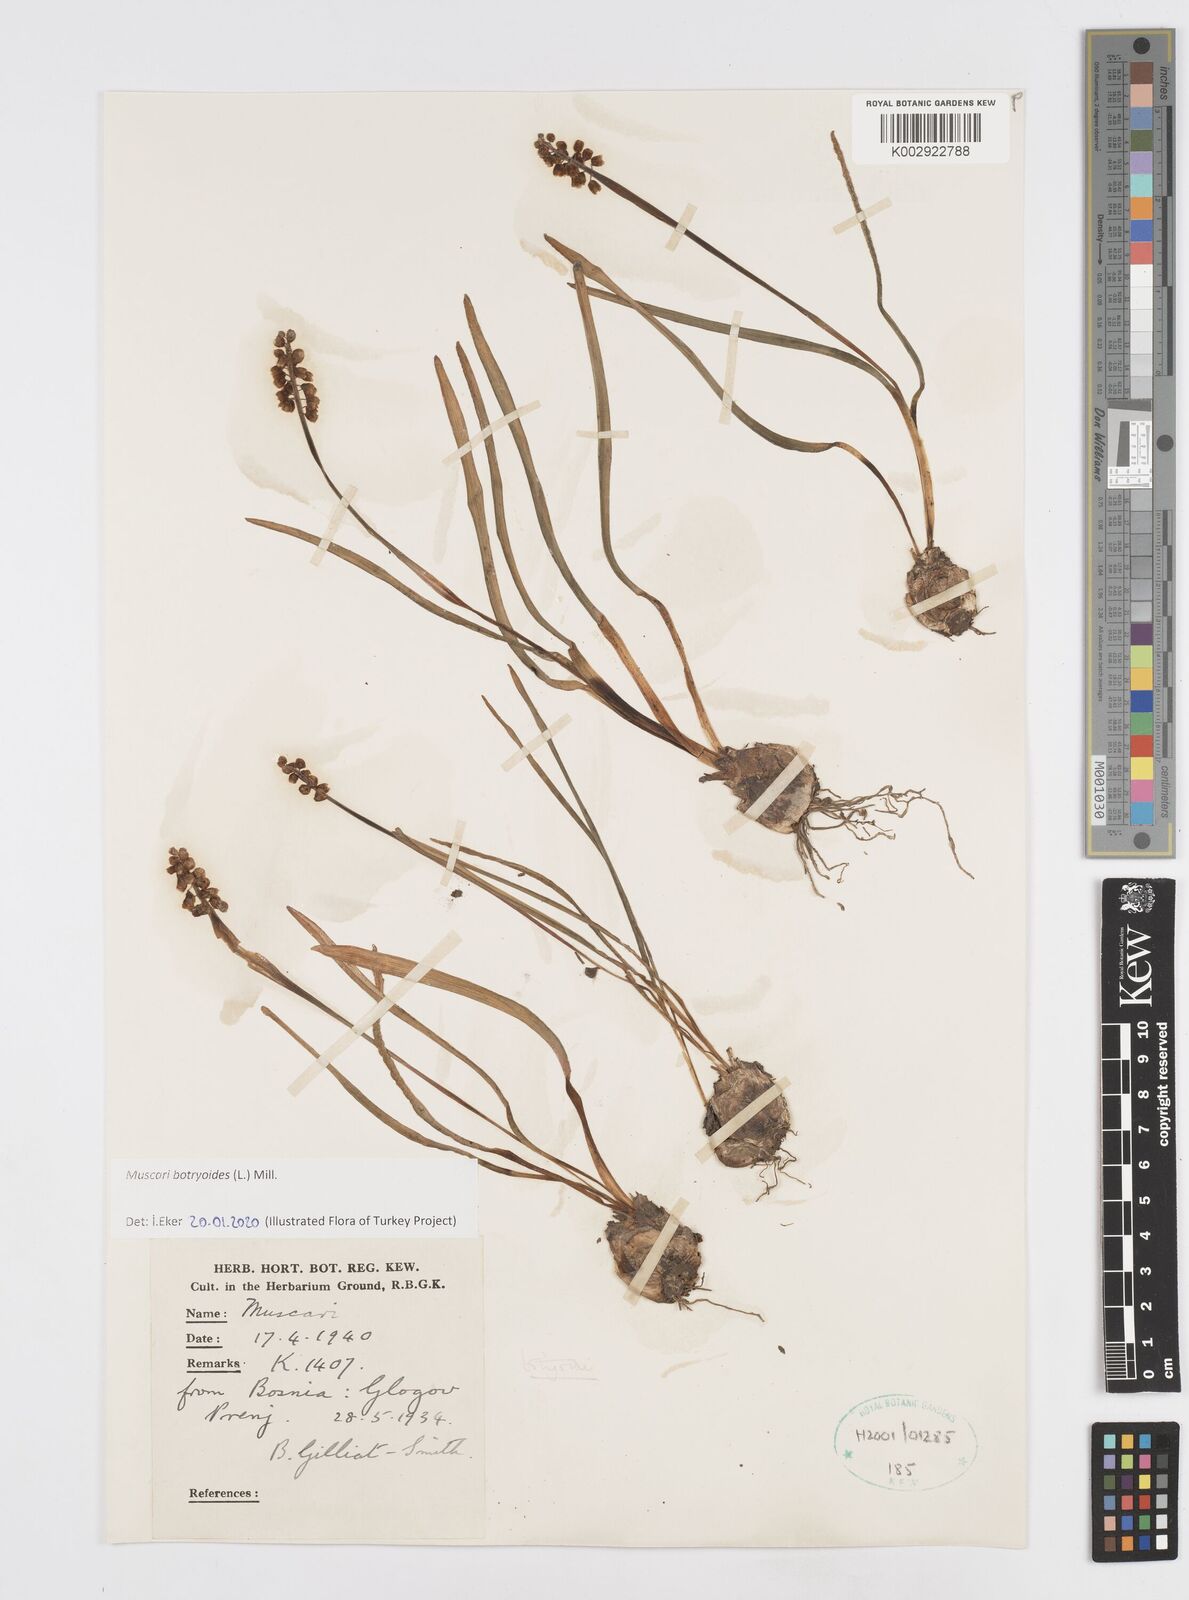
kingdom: Plantae
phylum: Tracheophyta
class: Liliopsida
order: Asparagales
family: Asparagaceae
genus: Muscari
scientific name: Muscari botryoides
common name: Compact grape-hyacinth
